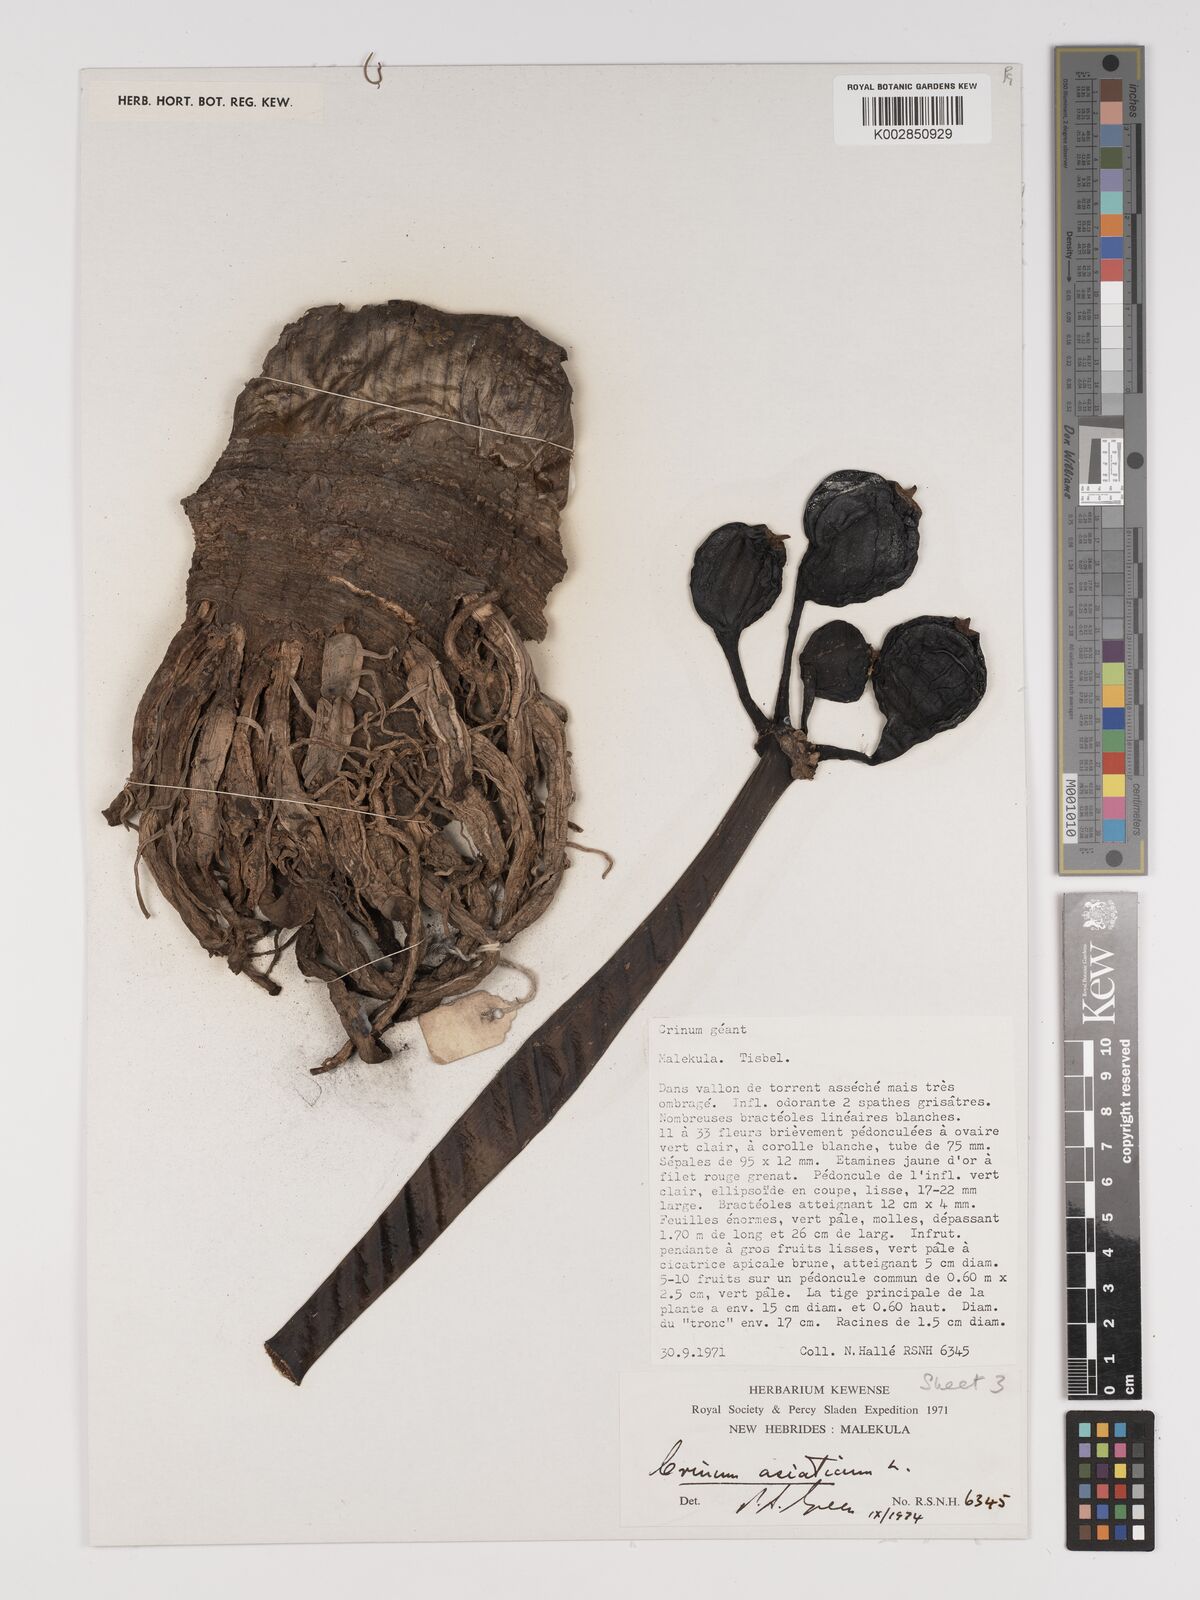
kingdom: Plantae
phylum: Tracheophyta
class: Liliopsida
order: Asparagales
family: Amaryllidaceae
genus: Crinum
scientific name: Crinum asiaticum
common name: Poisonbulb
